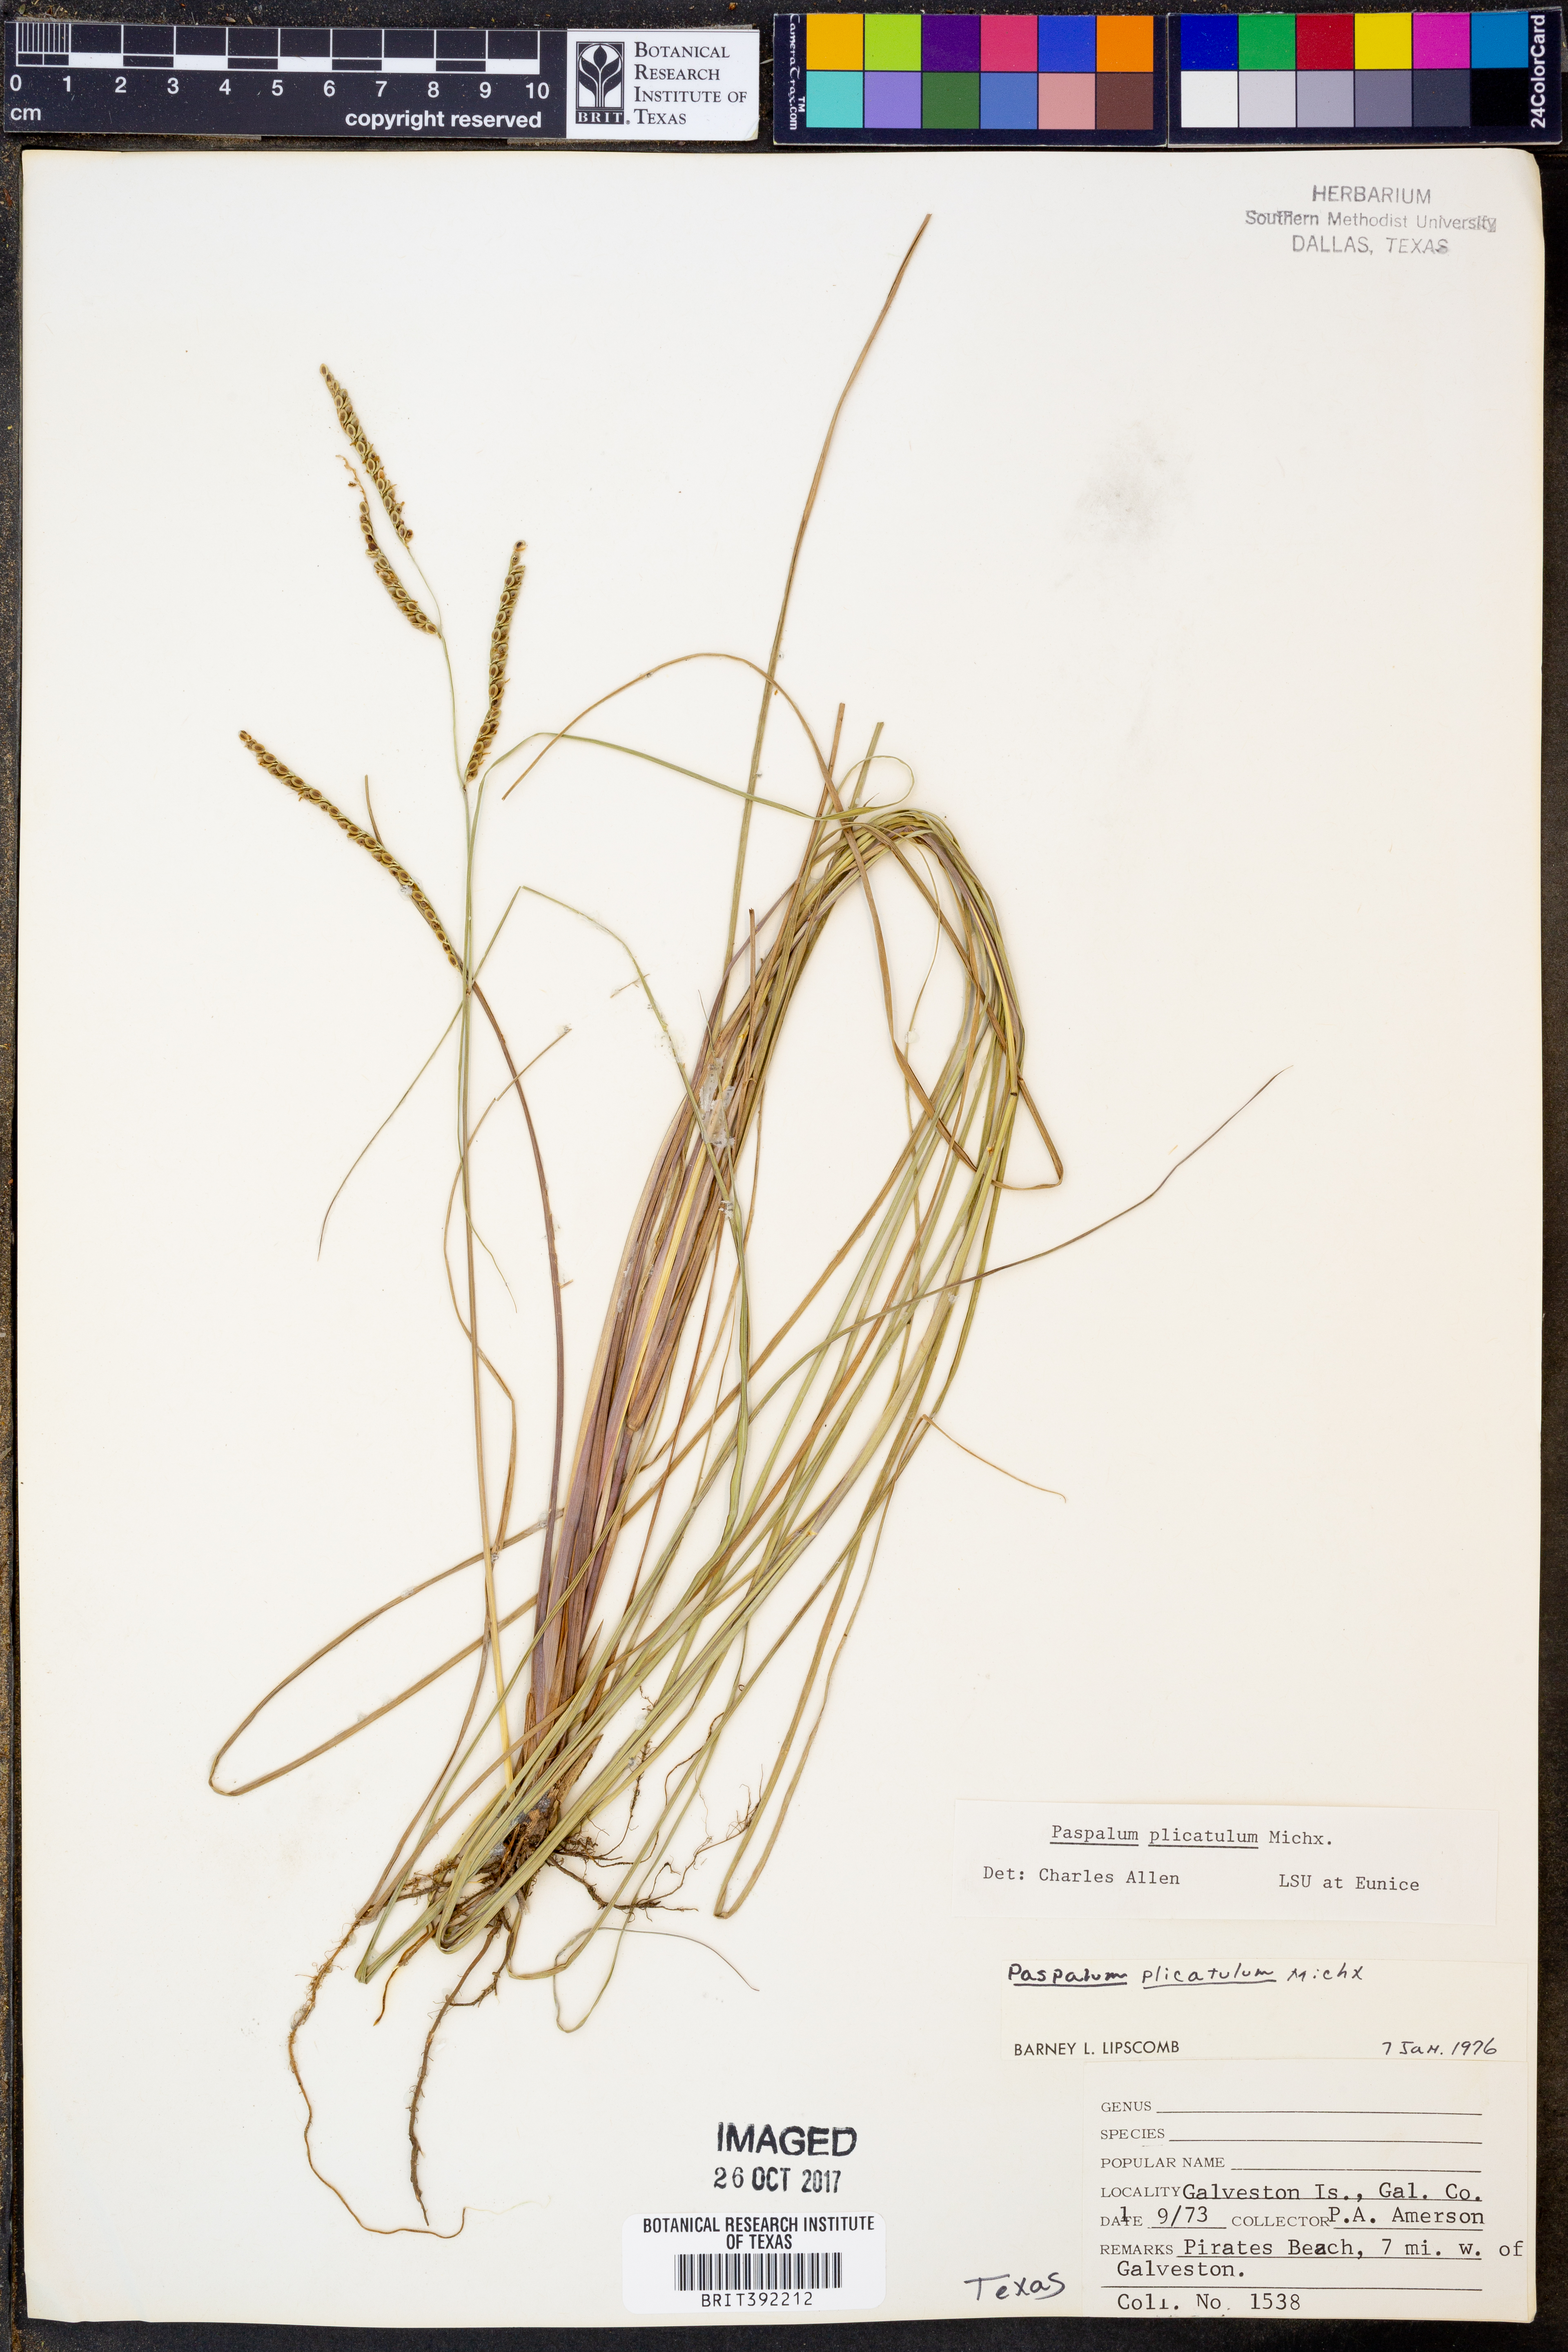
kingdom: Plantae
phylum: Tracheophyta
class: Liliopsida
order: Poales
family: Poaceae
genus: Paspalum
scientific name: Paspalum plicatulum
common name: Top paspalum
